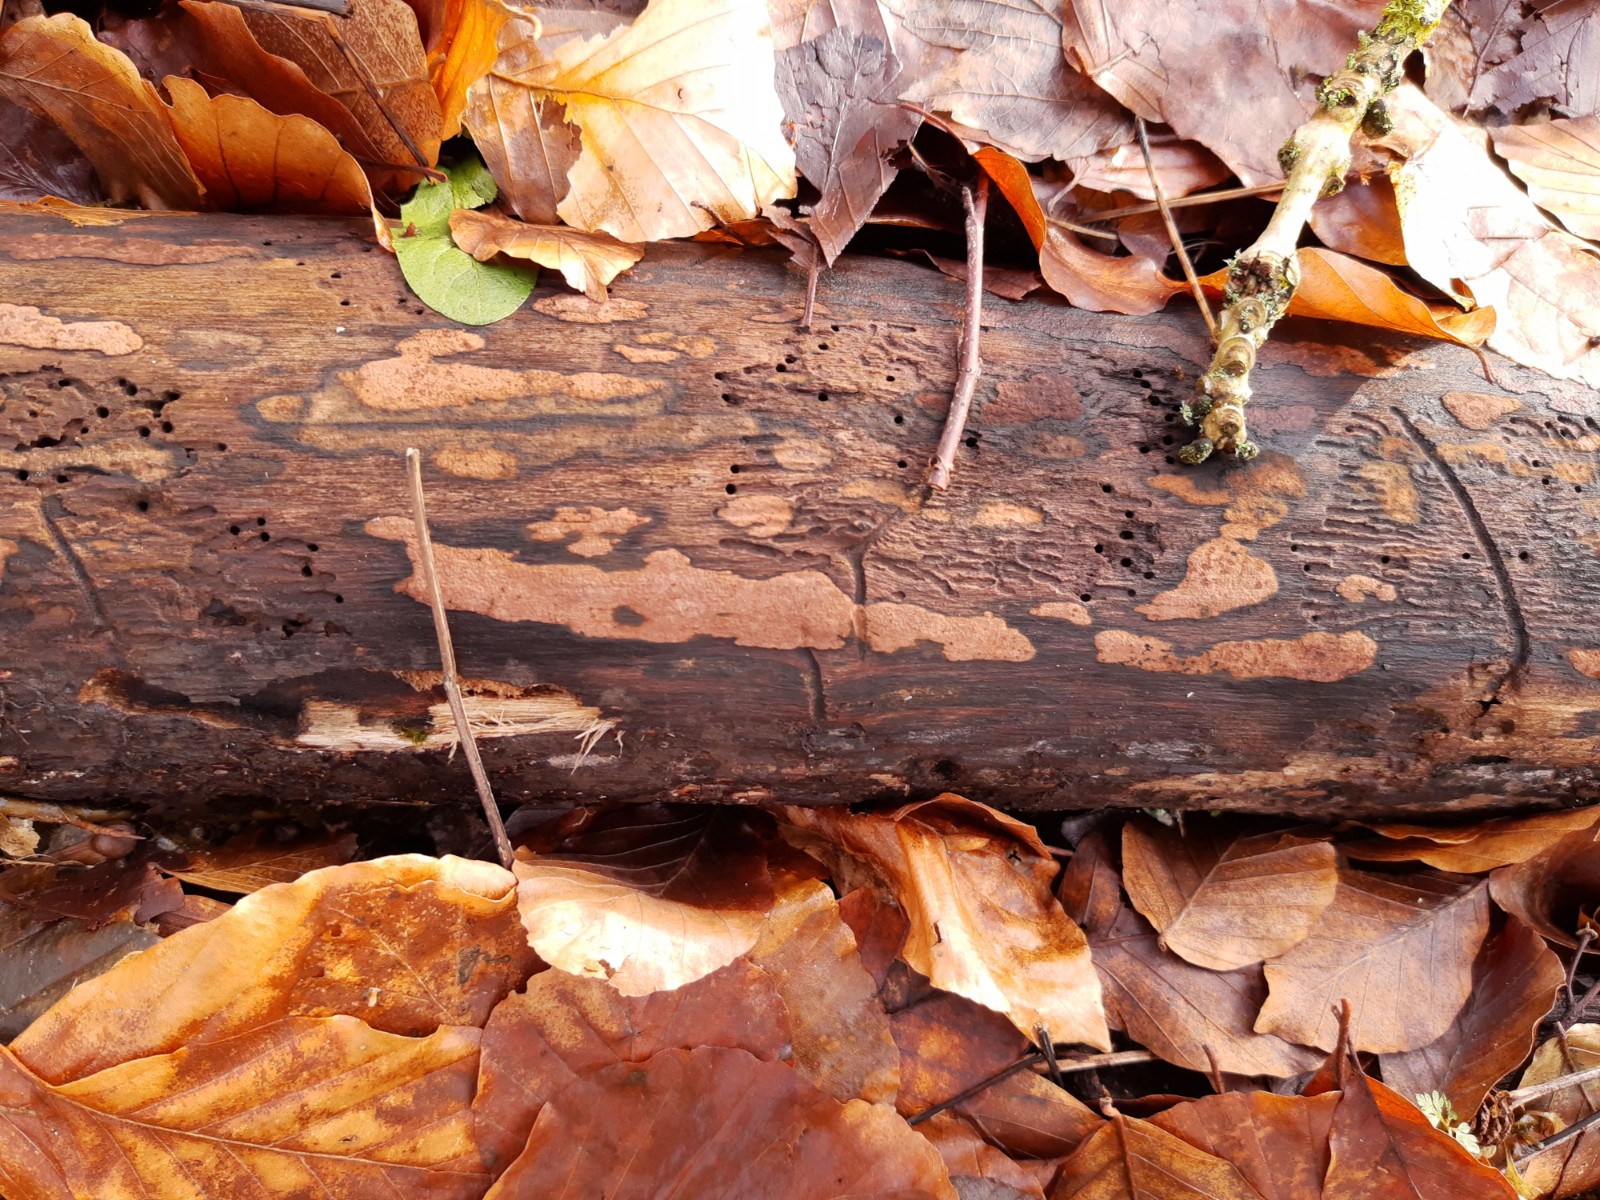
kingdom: Fungi
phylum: Ascomycota
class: Sordariomycetes
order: Xylariales
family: Hypoxylaceae
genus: Hypoxylon
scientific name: Hypoxylon petriniae
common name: nedsænket kulbær
